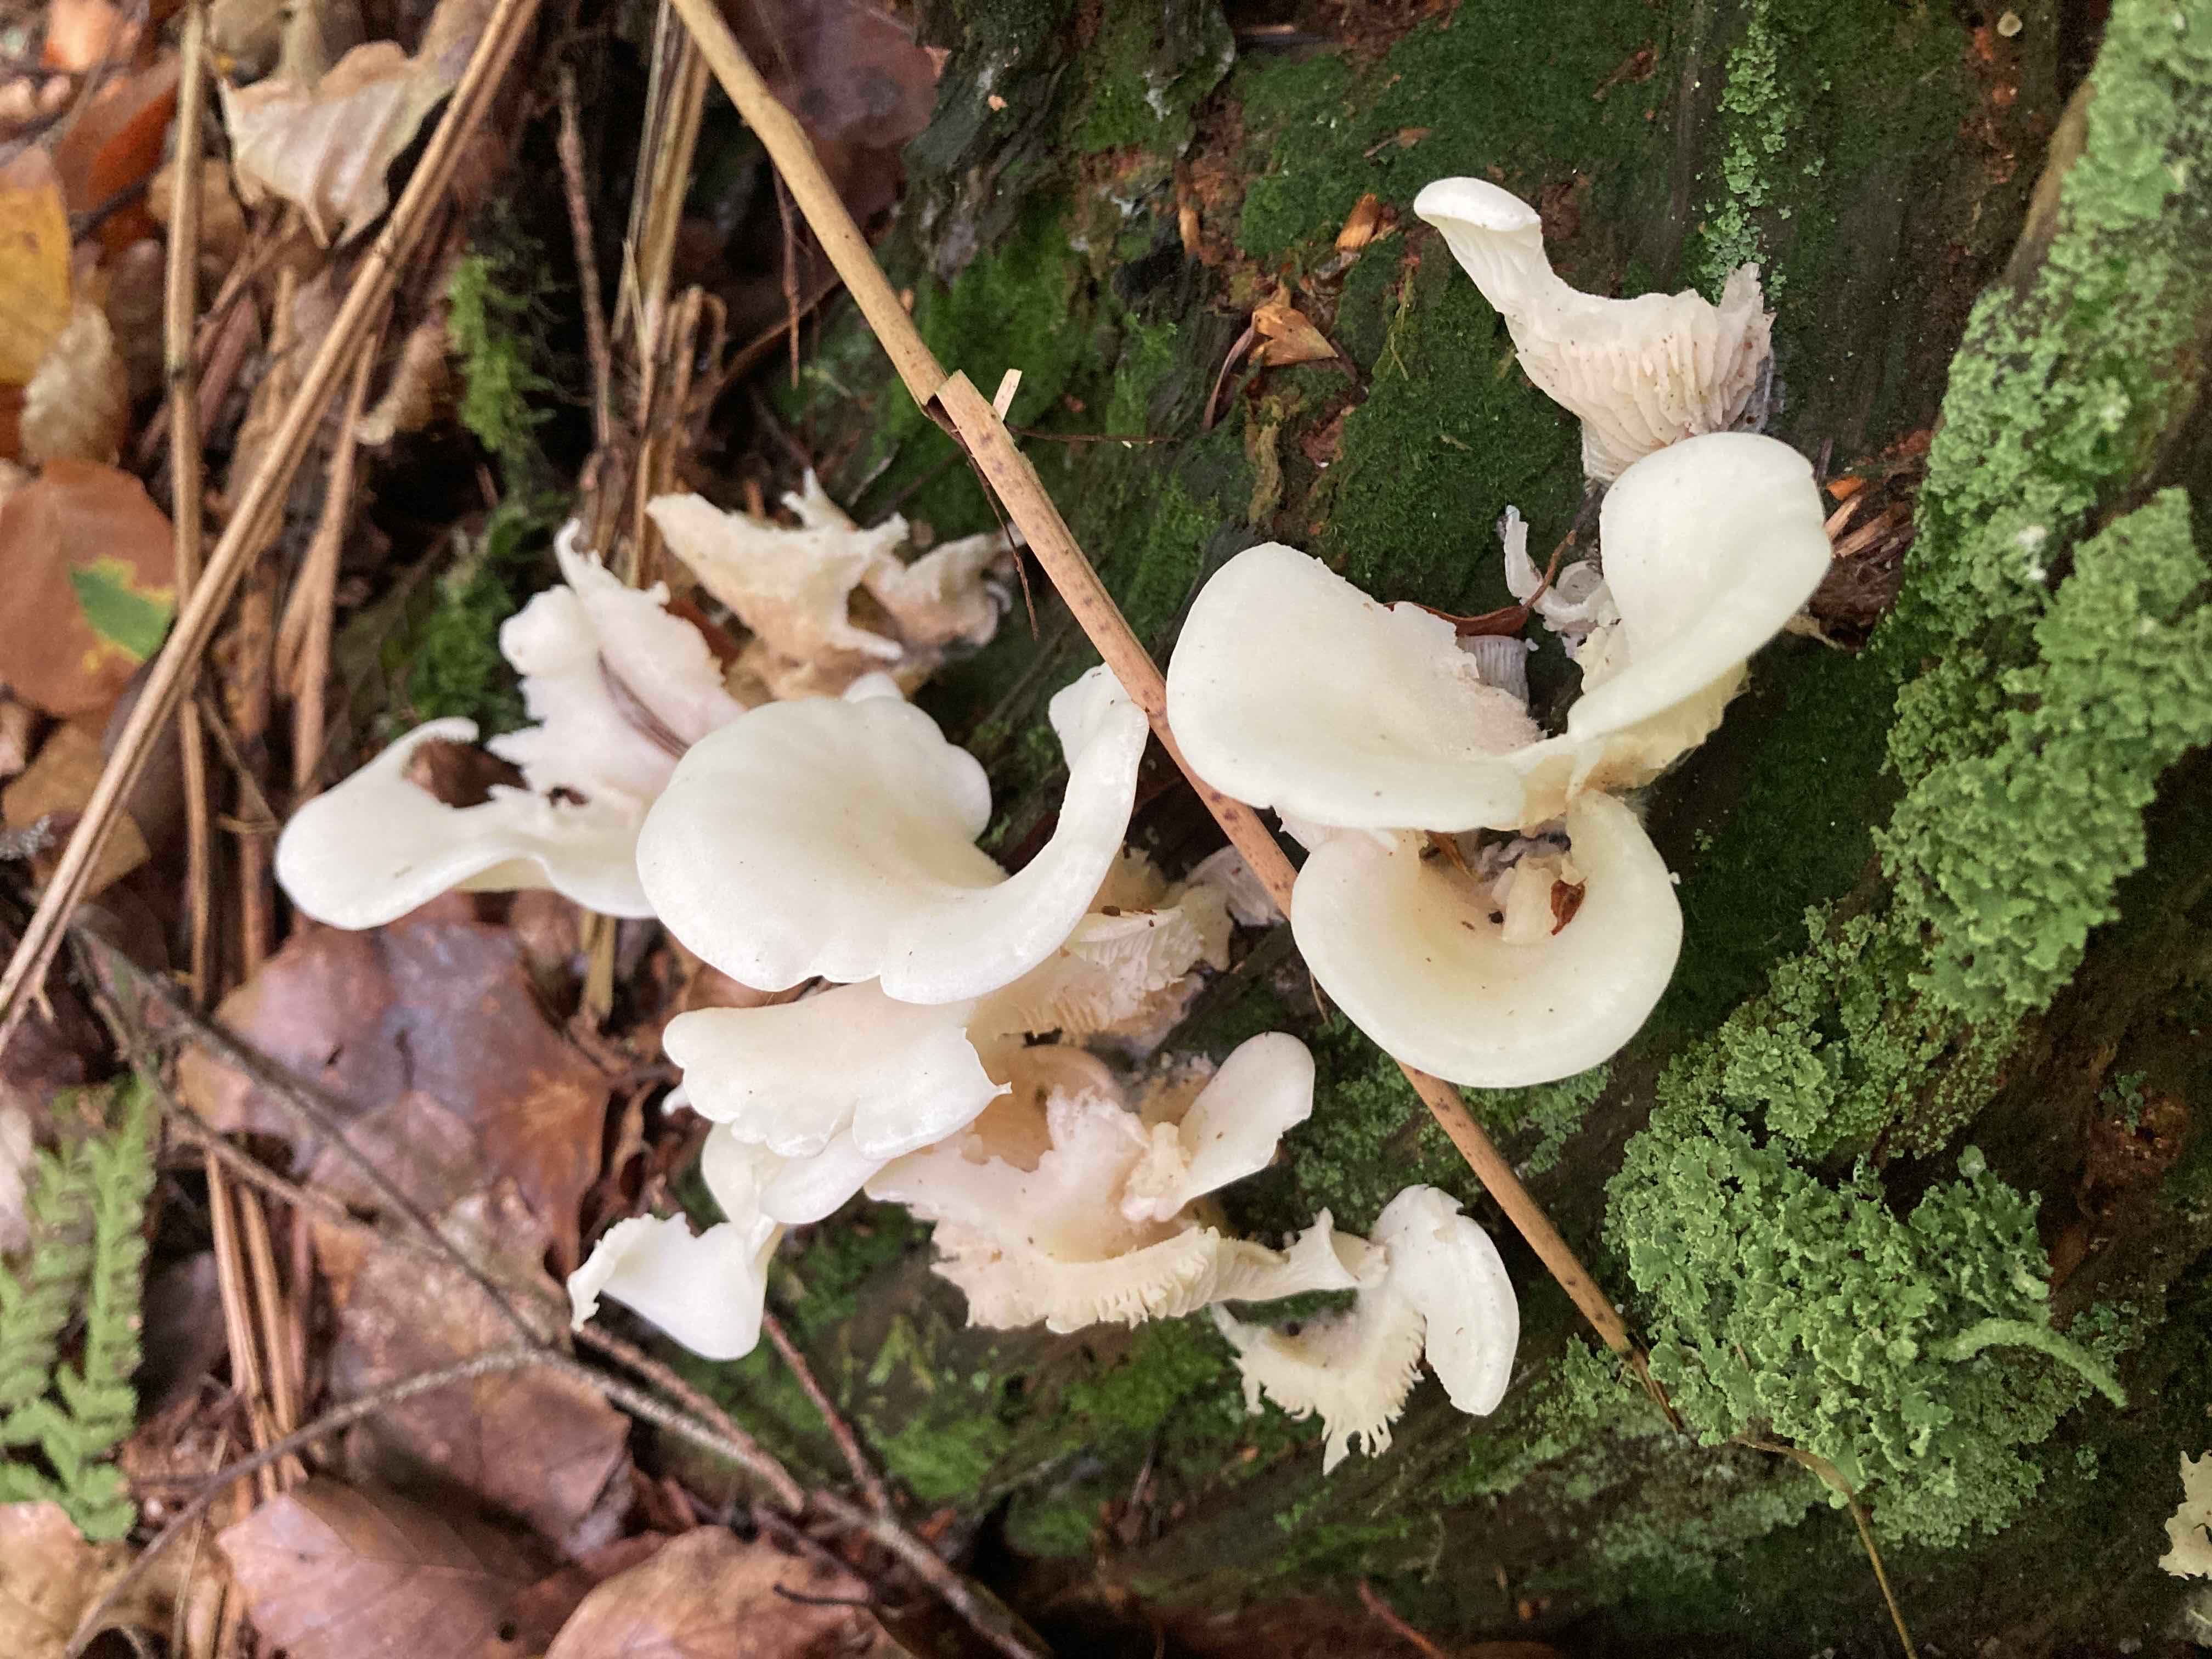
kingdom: Fungi
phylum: Basidiomycota
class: Agaricomycetes
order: Agaricales
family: Marasmiaceae
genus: Pleurocybella
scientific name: Pleurocybella porrigens
